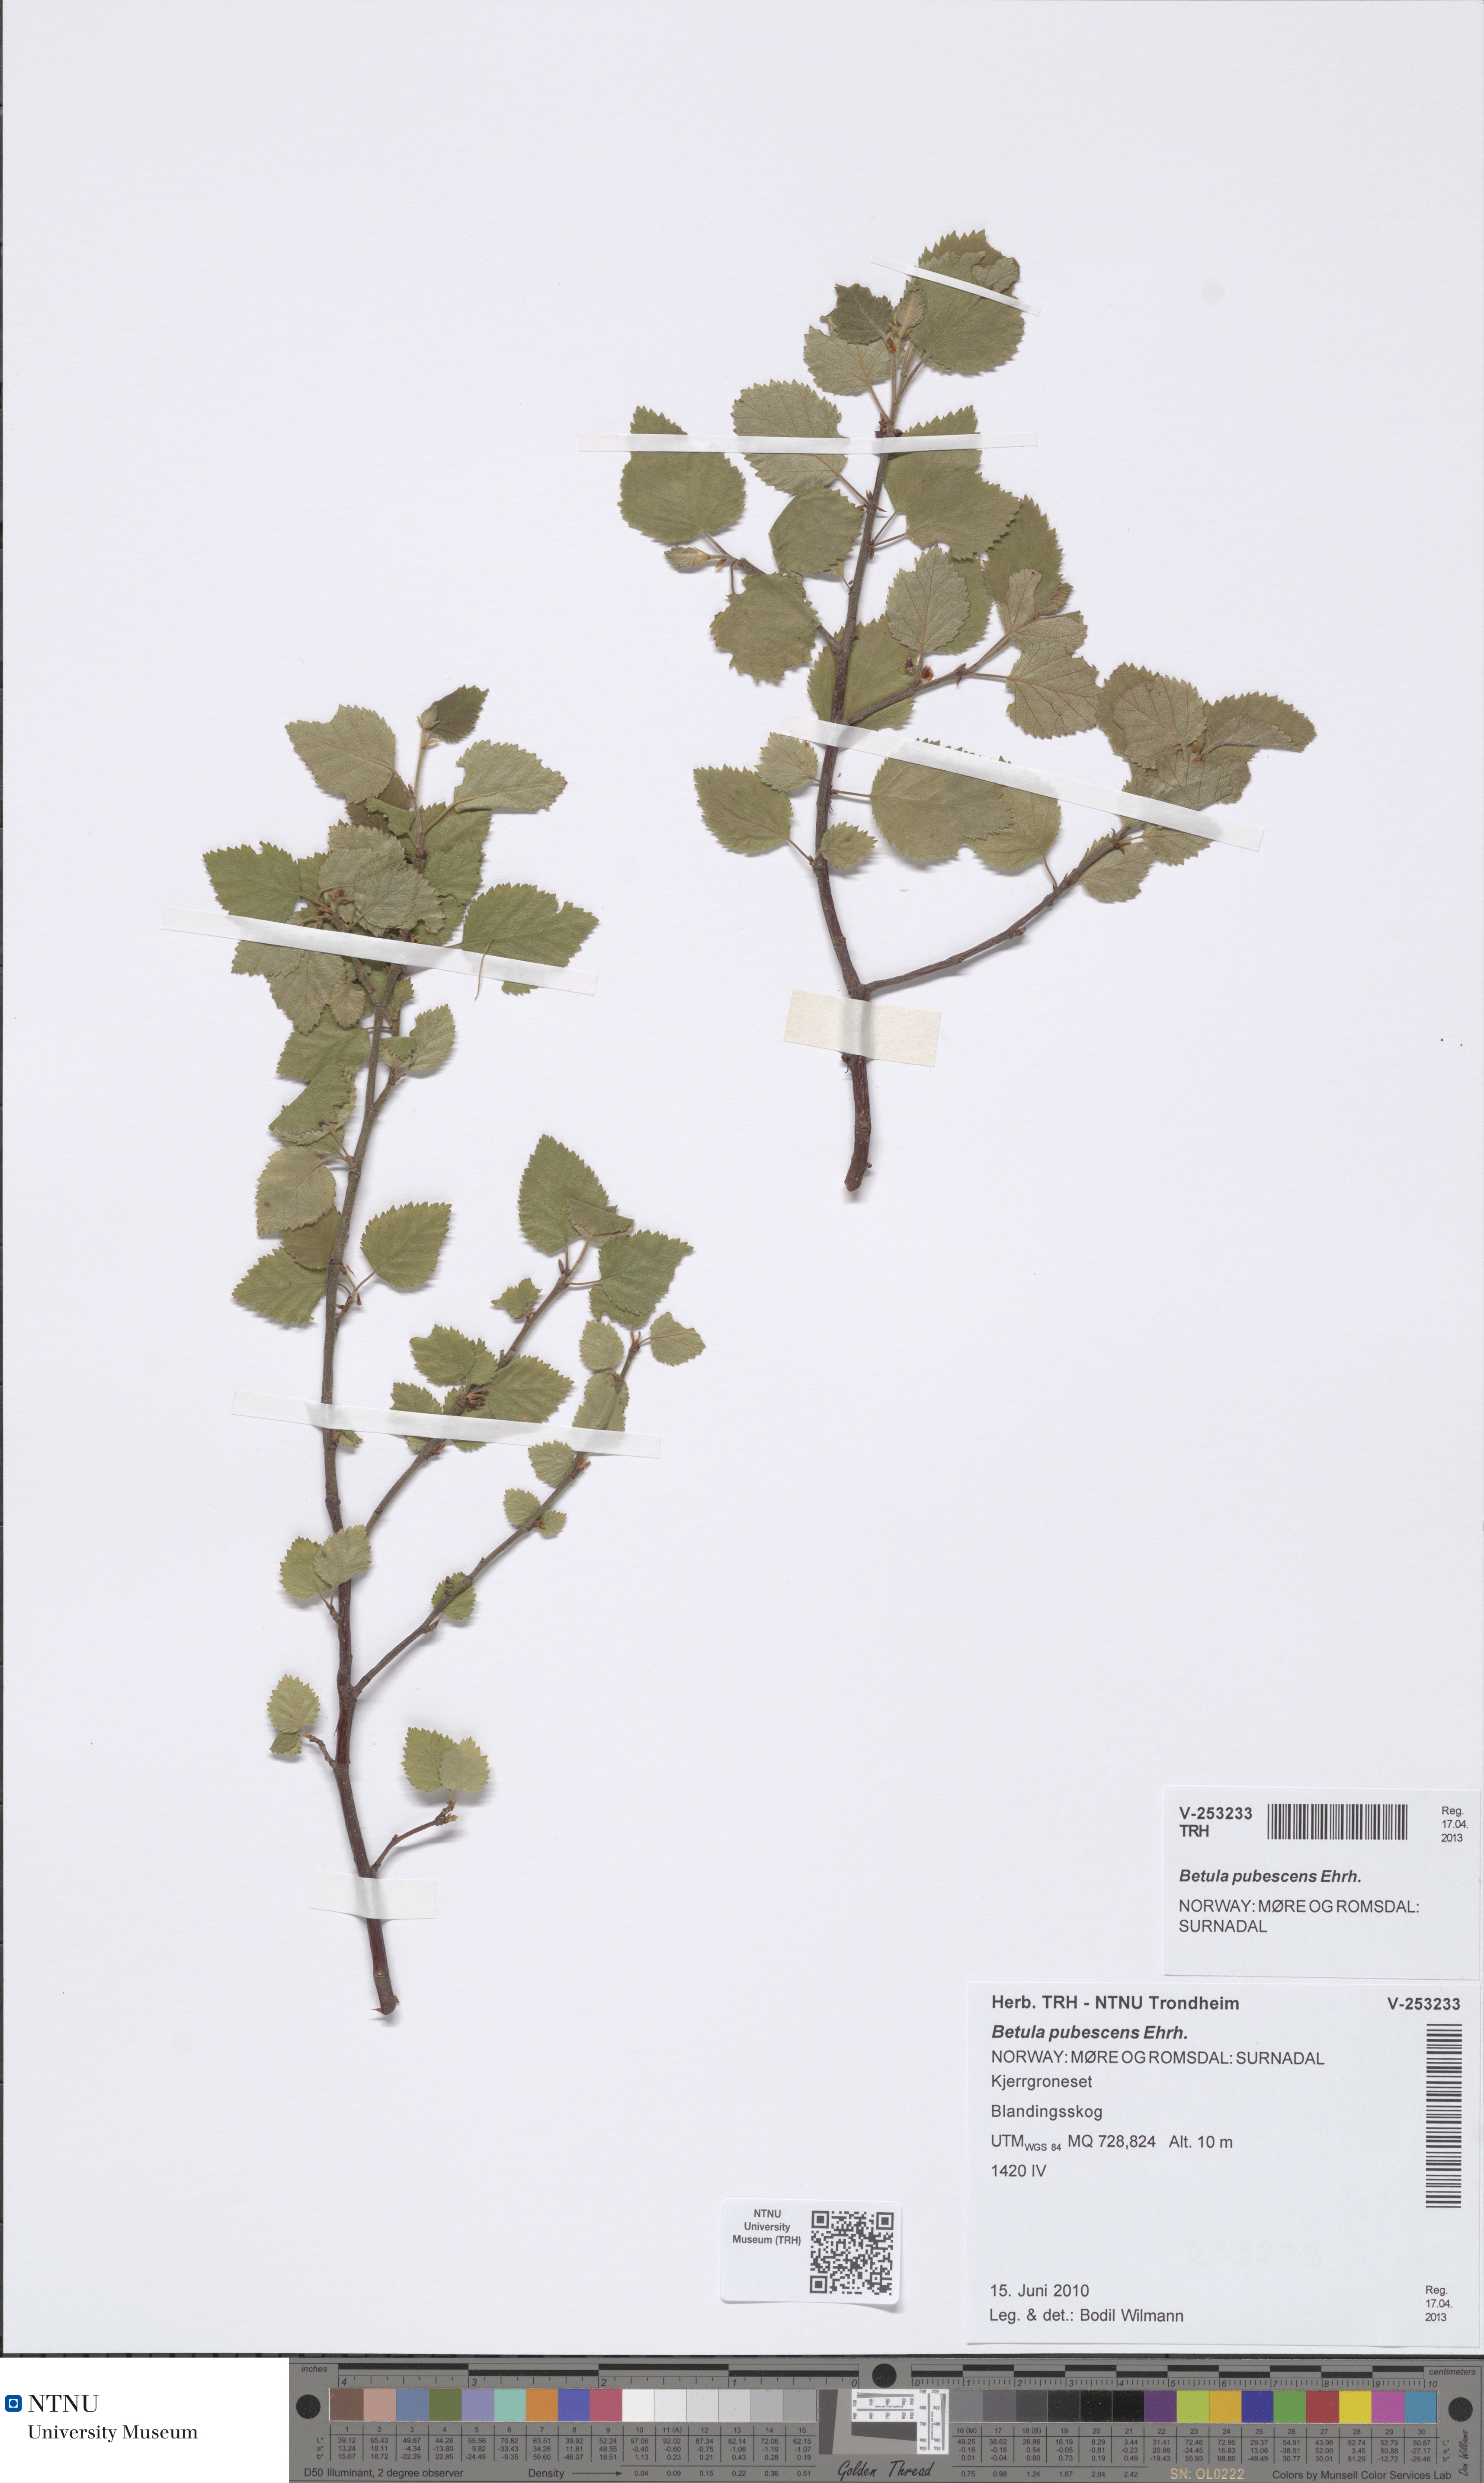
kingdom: Plantae
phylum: Tracheophyta
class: Magnoliopsida
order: Fagales
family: Betulaceae
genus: Betula
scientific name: Betula pubescens
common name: Downy birch
